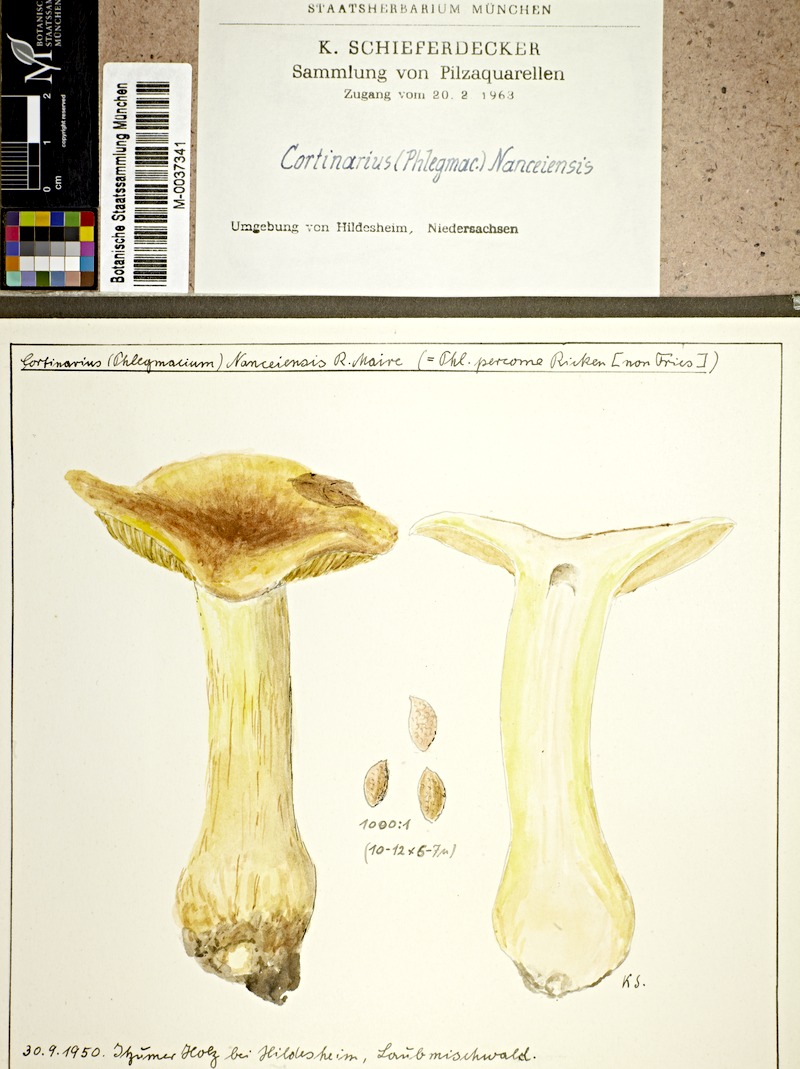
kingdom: Fungi
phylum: Basidiomycota
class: Agaricomycetes
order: Agaricales
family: Cortinariaceae
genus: Cortinarius
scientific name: Cortinarius nanceiensis
